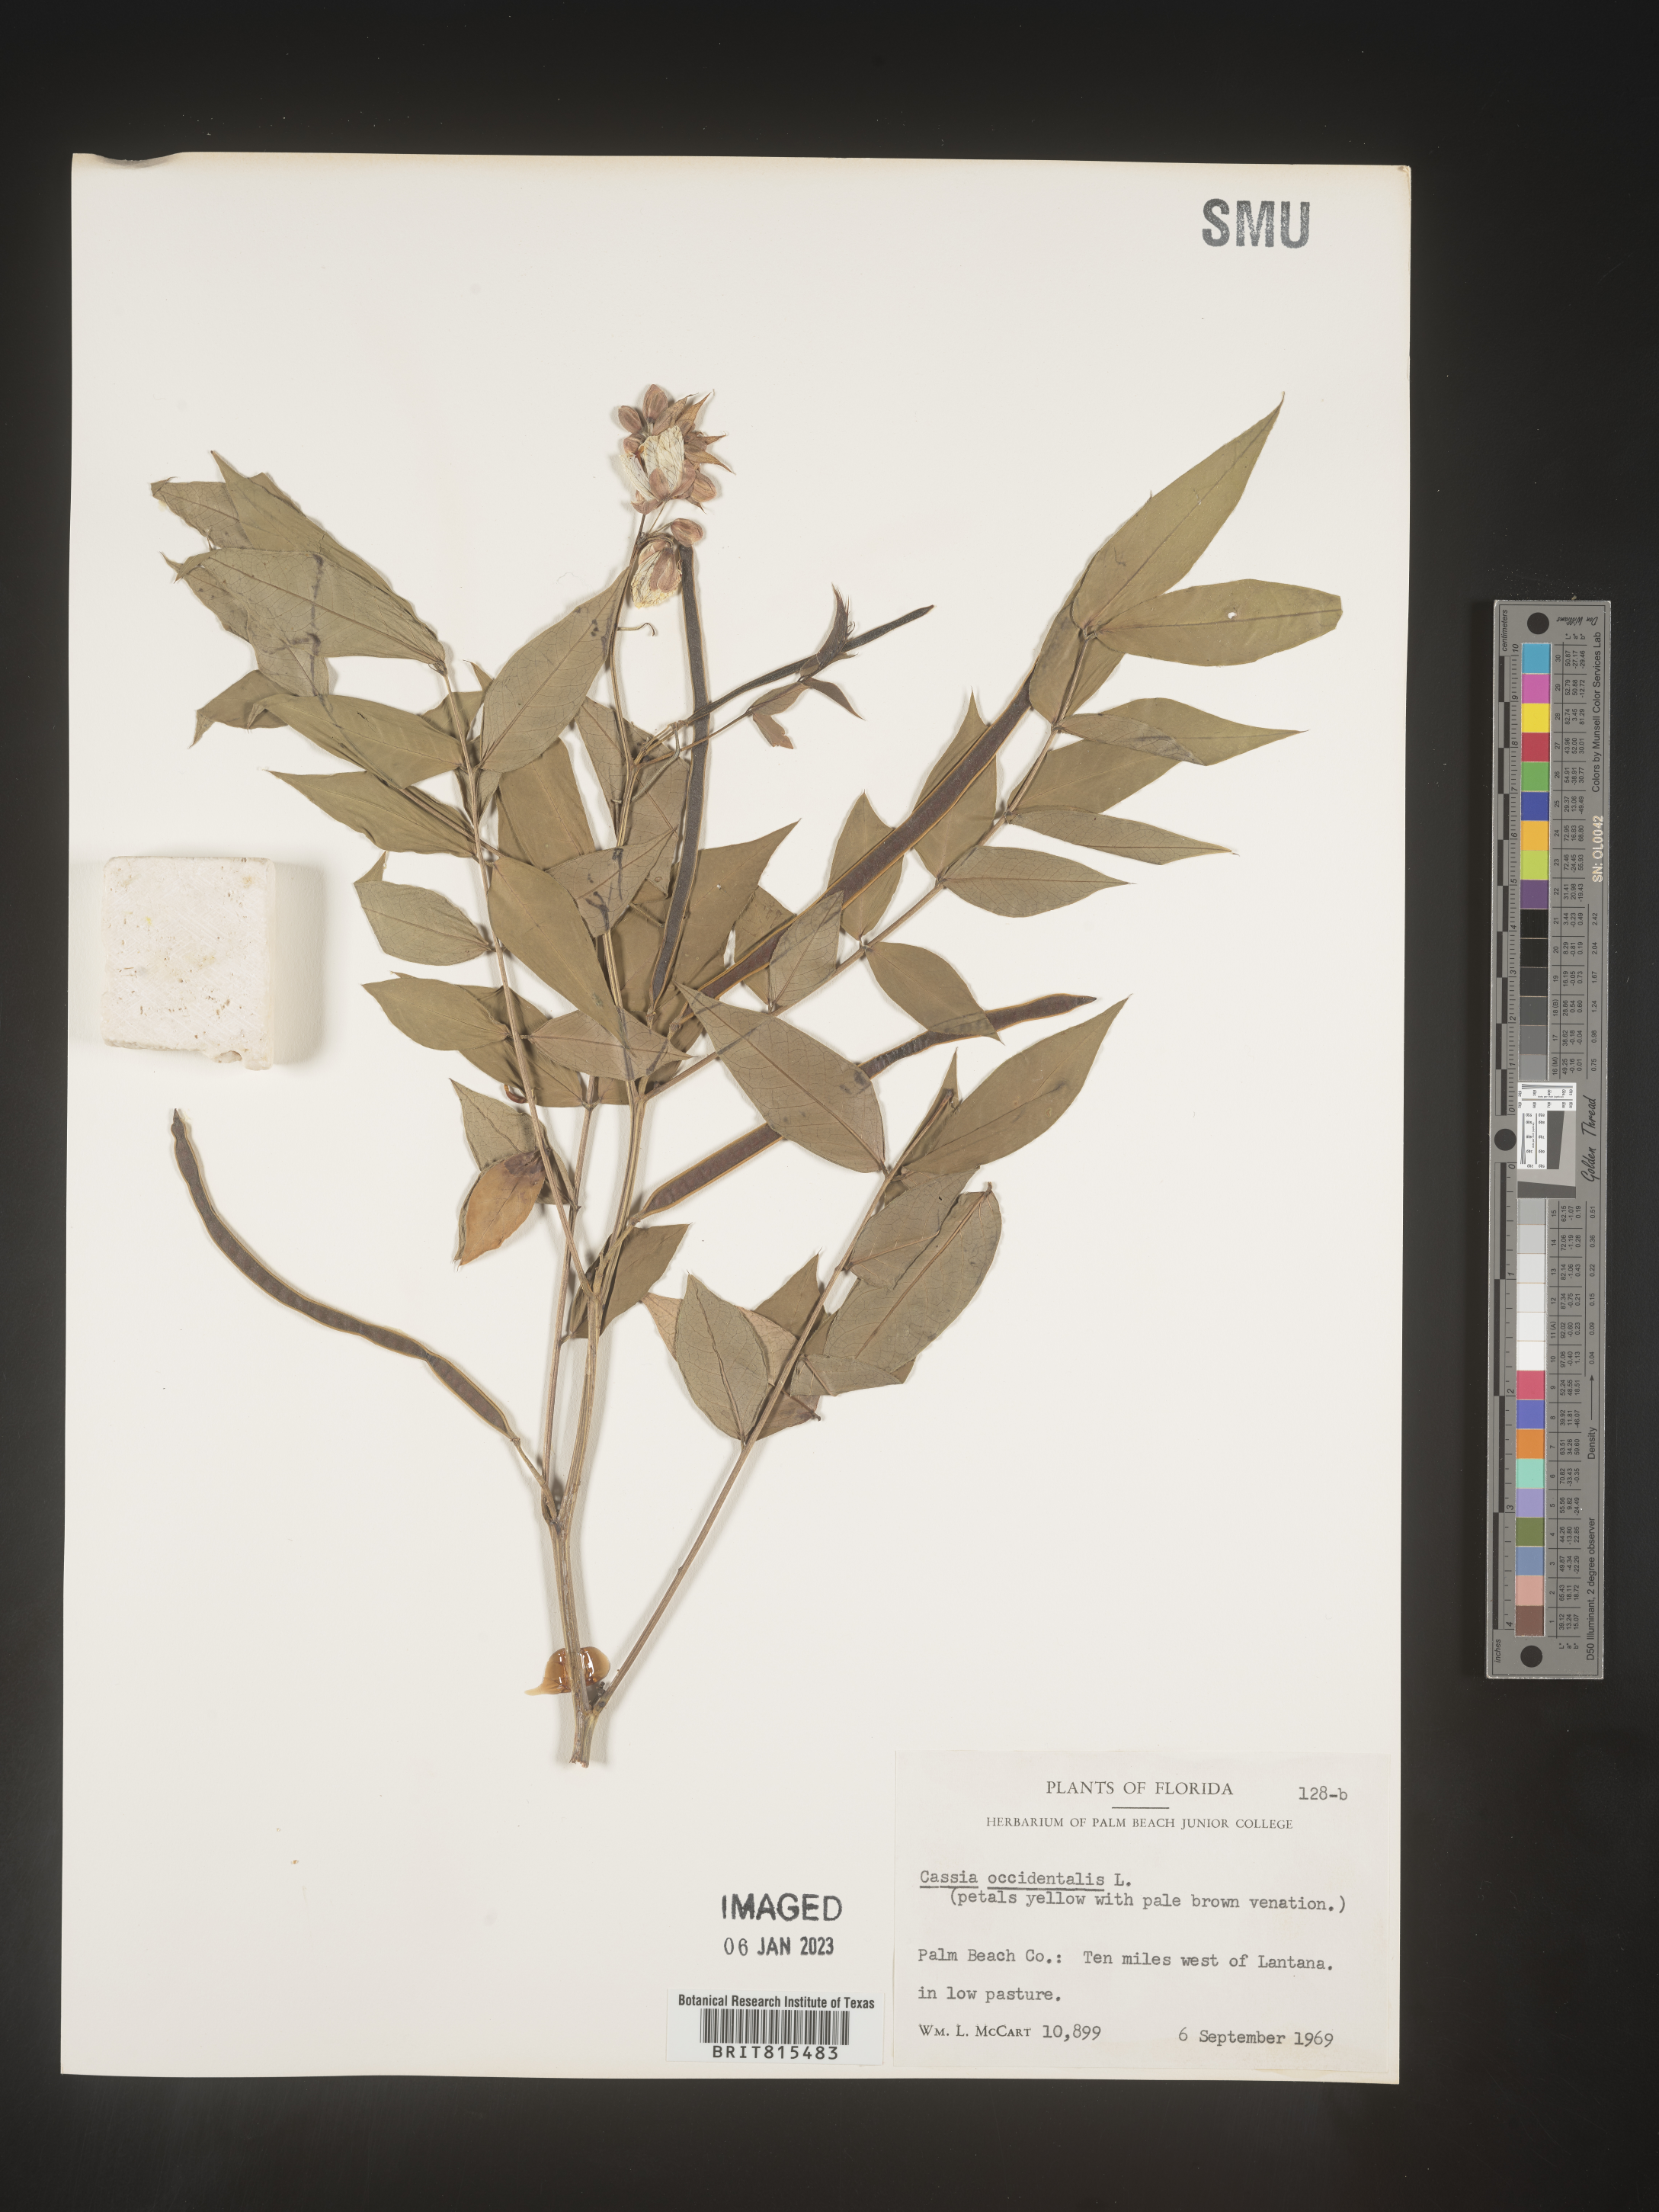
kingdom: Plantae
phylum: Tracheophyta
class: Magnoliopsida
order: Fabales
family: Fabaceae
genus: Senna
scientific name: Senna occidentalis
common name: Septicweed
